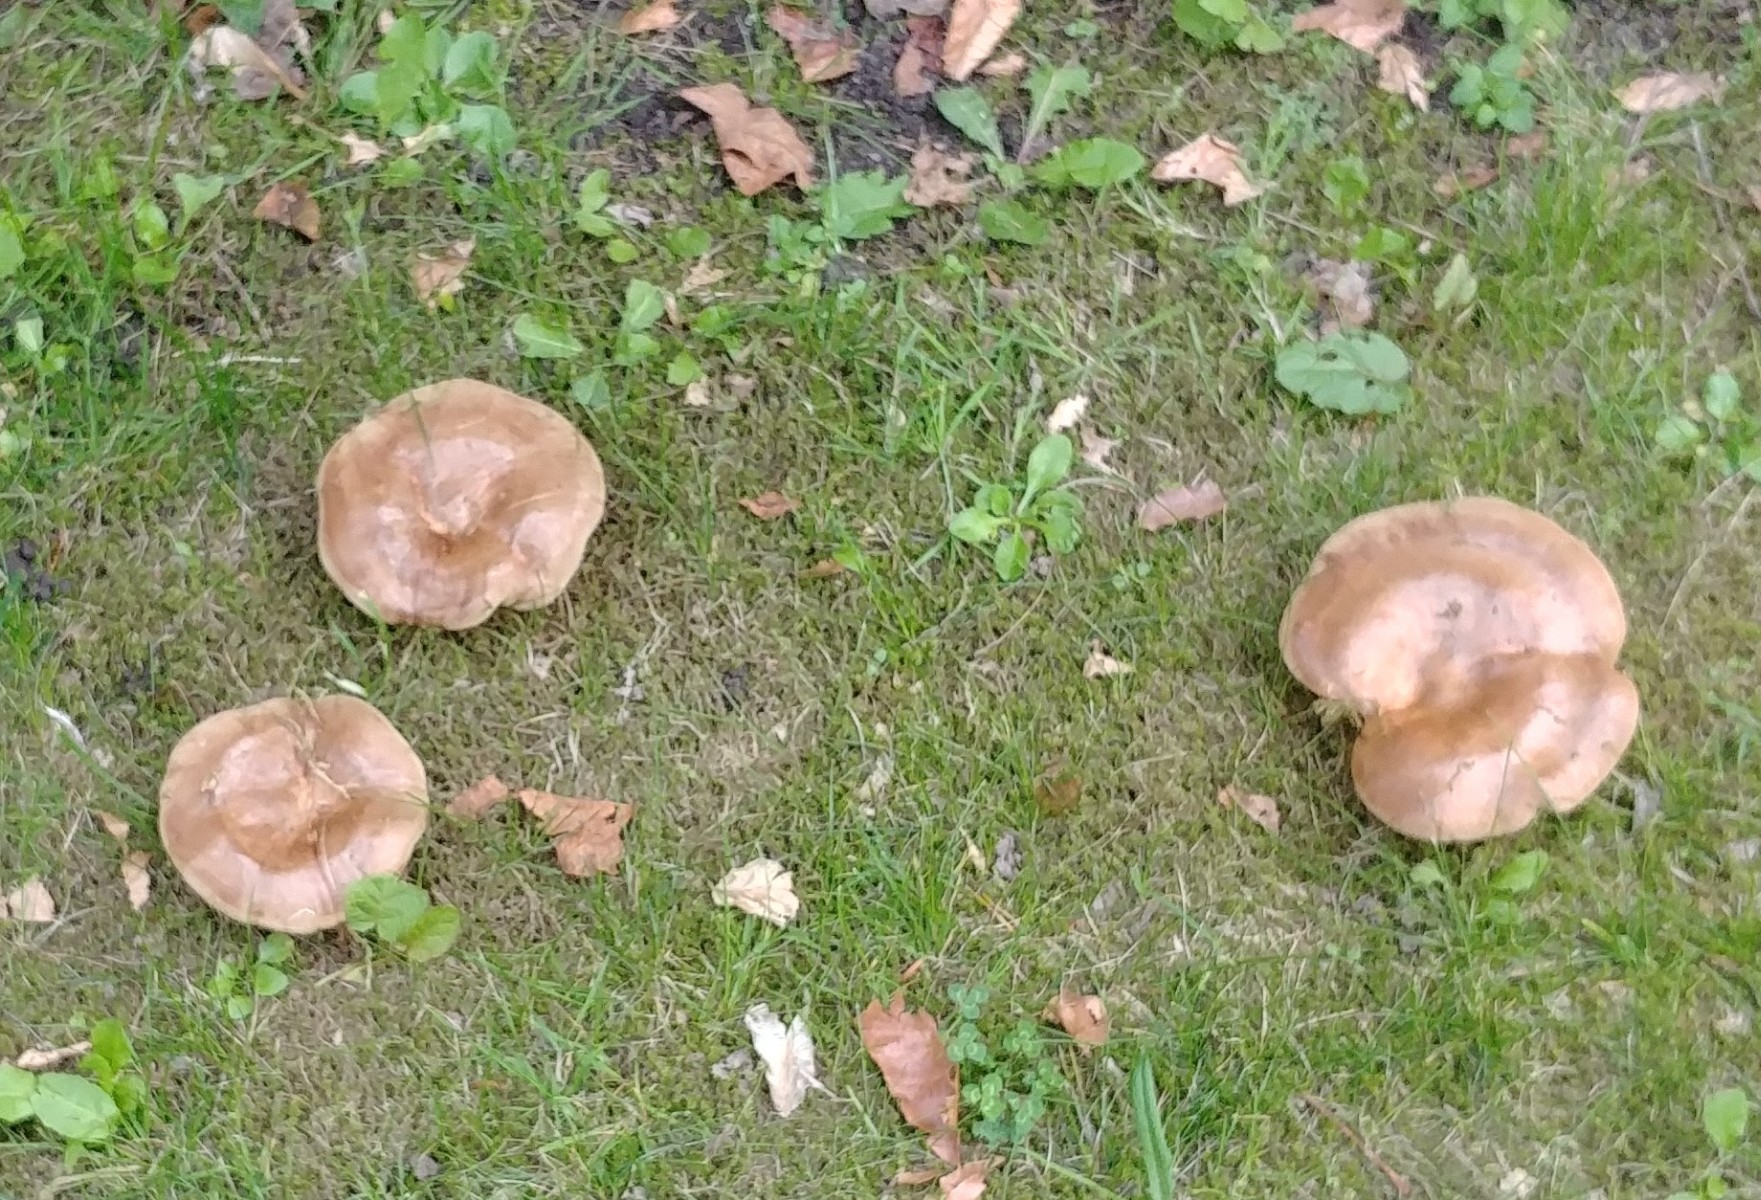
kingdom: Fungi
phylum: Basidiomycota
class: Agaricomycetes
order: Boletales
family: Paxillaceae
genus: Paxillus
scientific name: Paxillus
